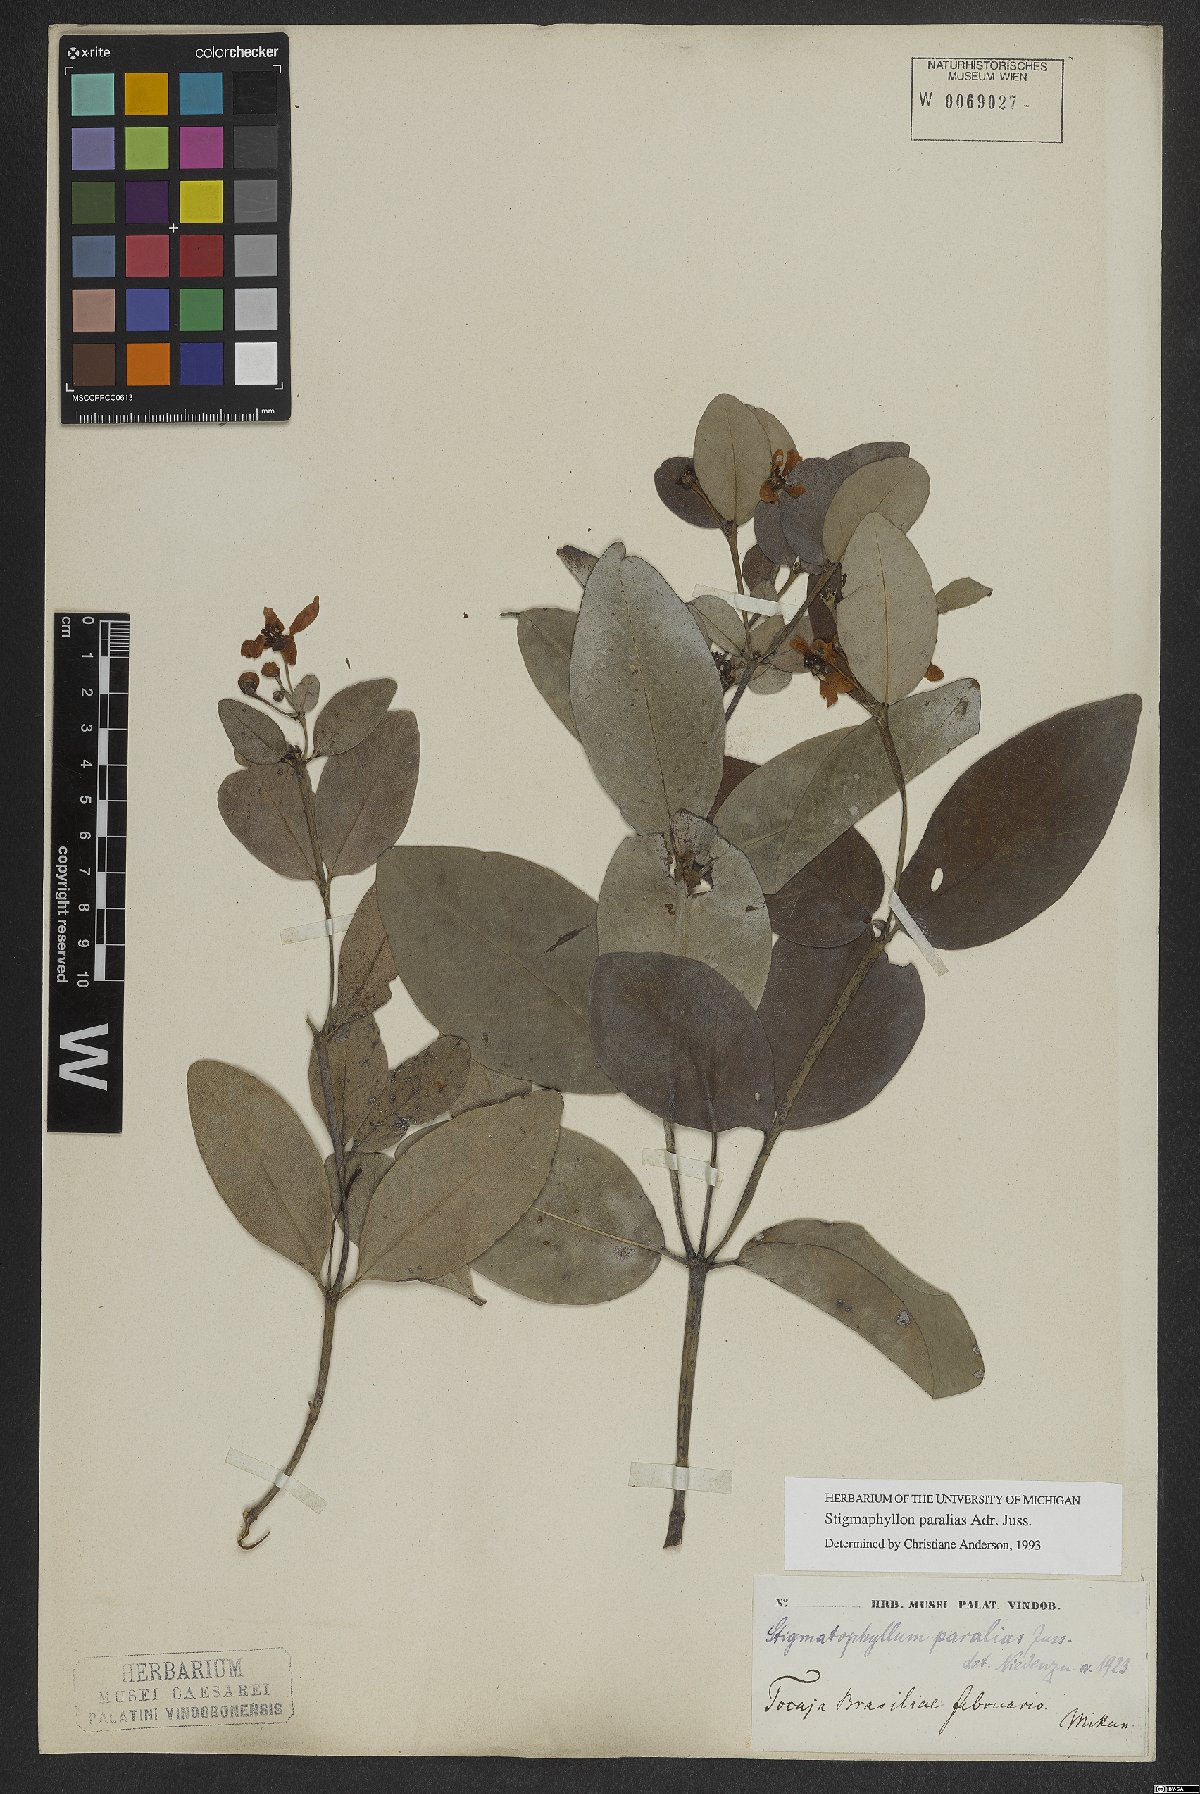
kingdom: Plantae
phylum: Tracheophyta
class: Magnoliopsida
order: Malpighiales
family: Malpighiaceae
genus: Stigmaphyllon
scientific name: Stigmaphyllon paralias
